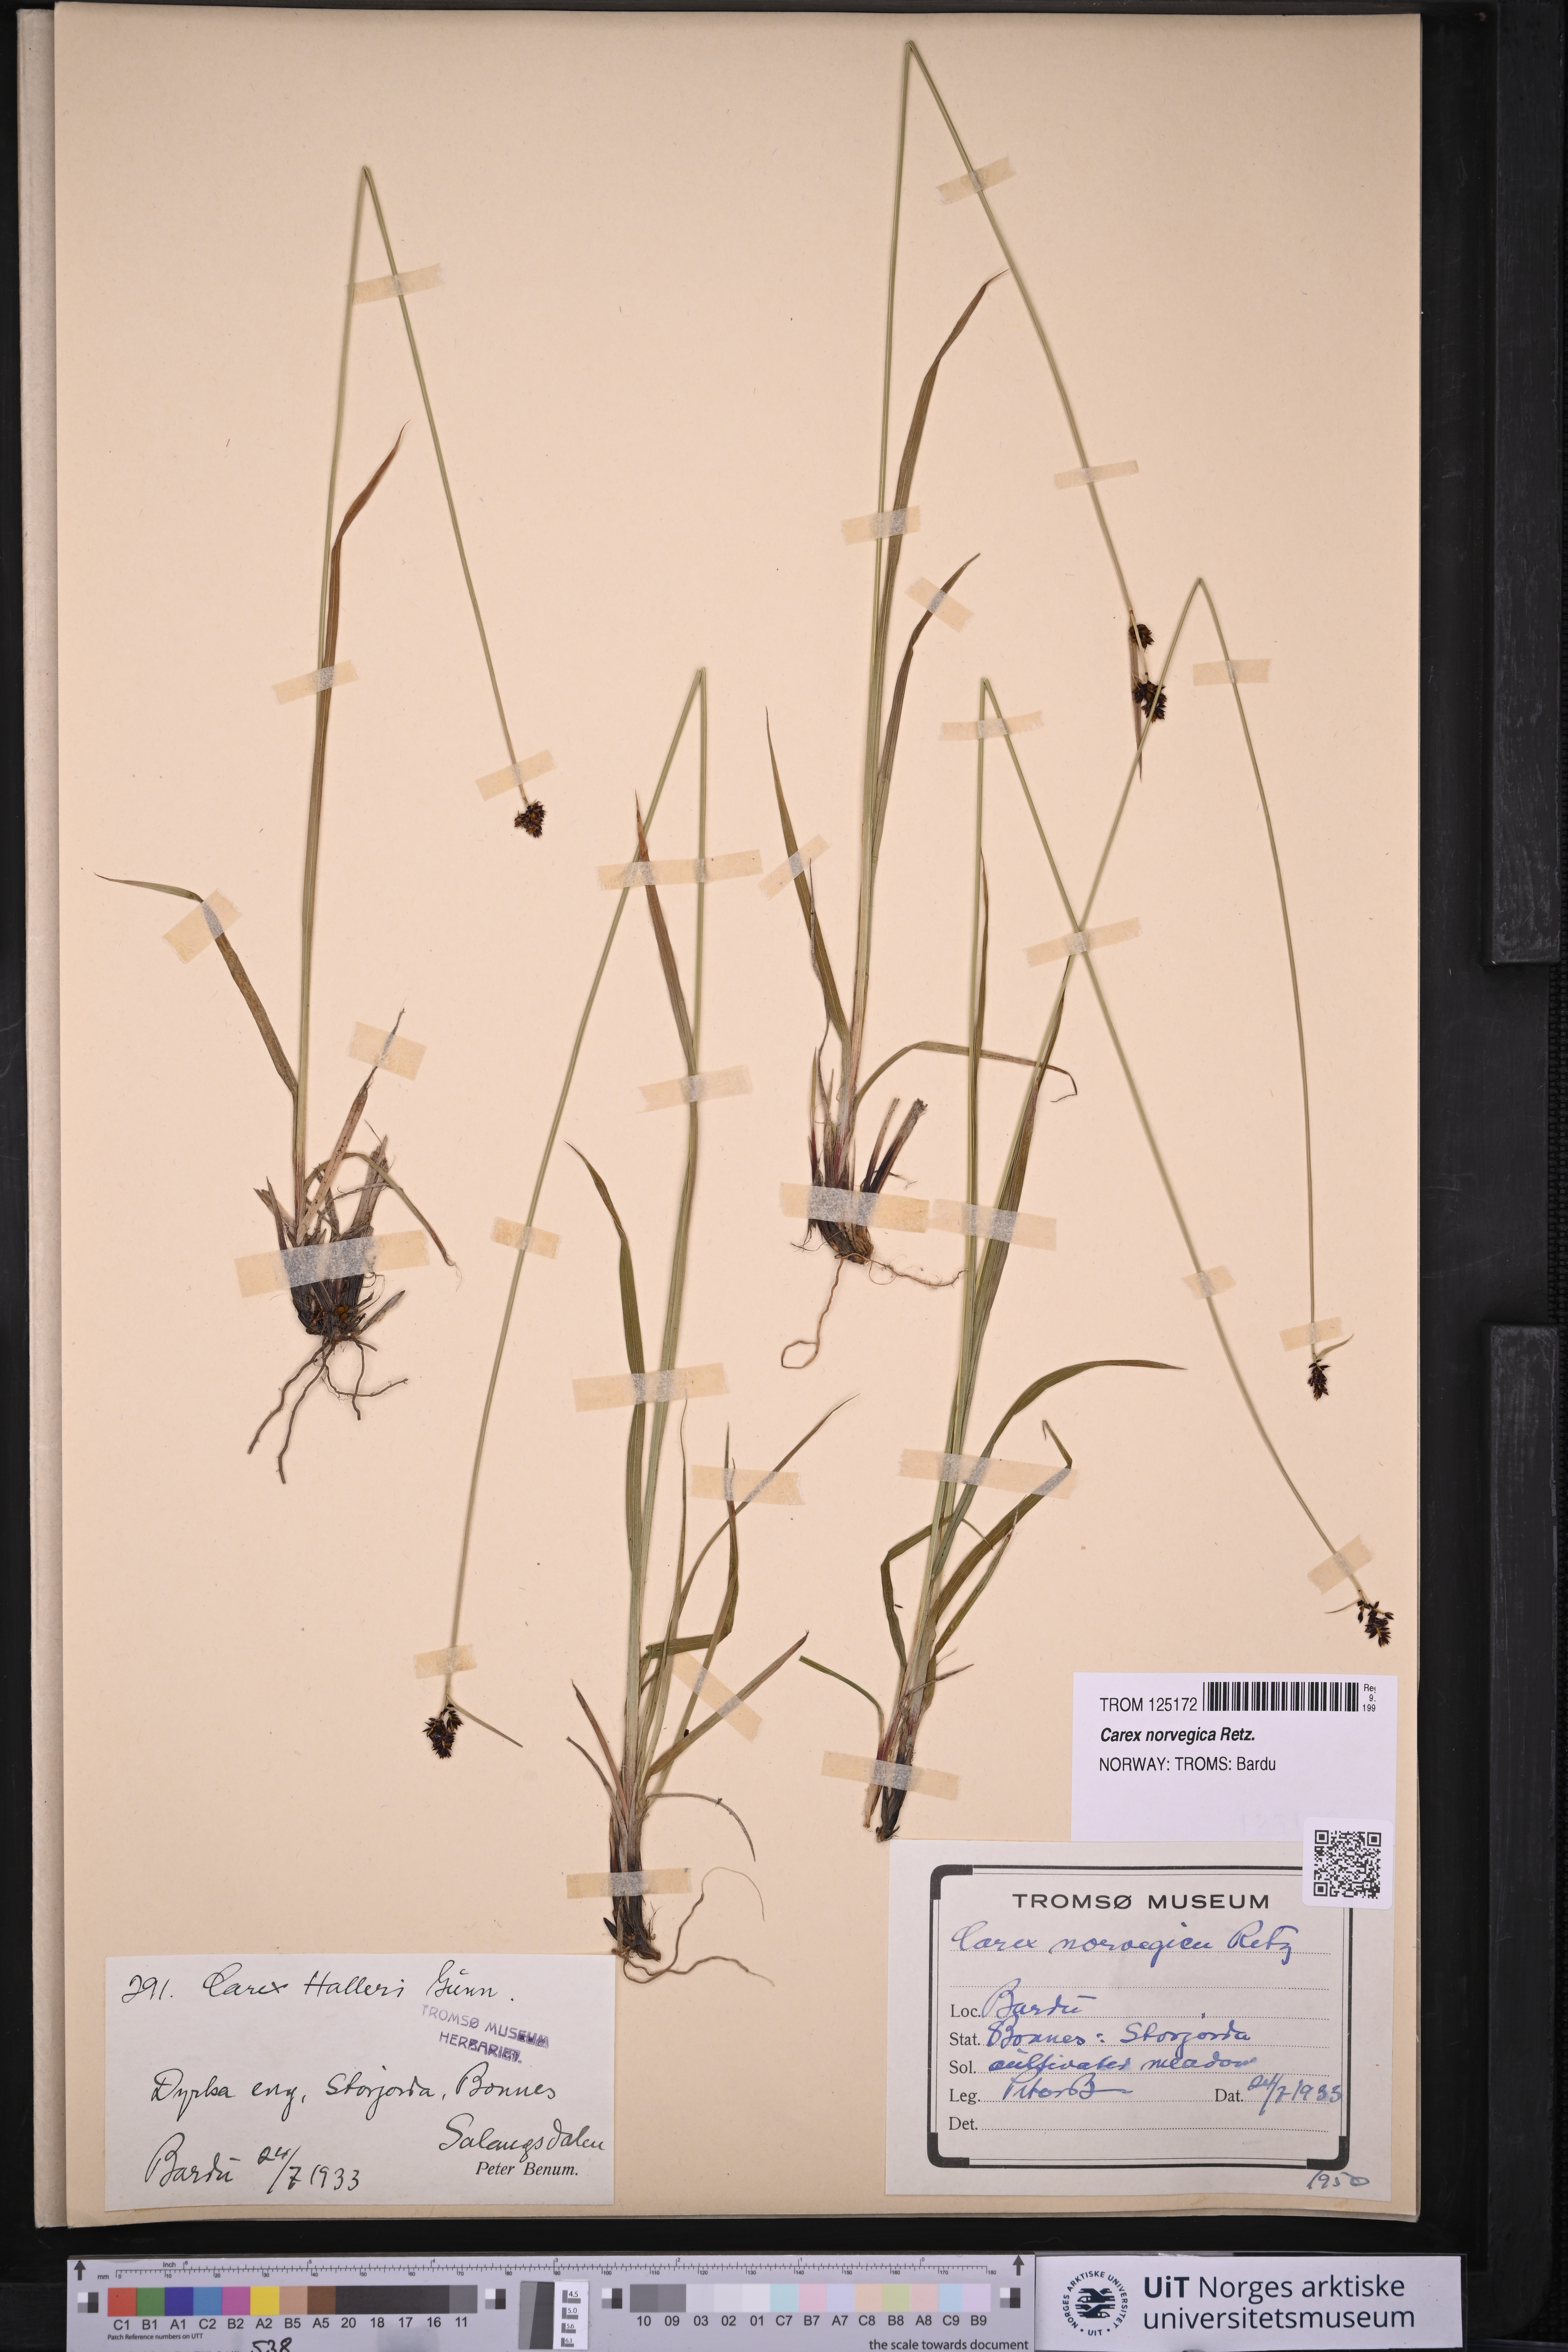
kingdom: Plantae
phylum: Tracheophyta
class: Liliopsida
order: Poales
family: Cyperaceae
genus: Carex
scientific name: Carex norvegica
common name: Close-headed alpine-sedge
